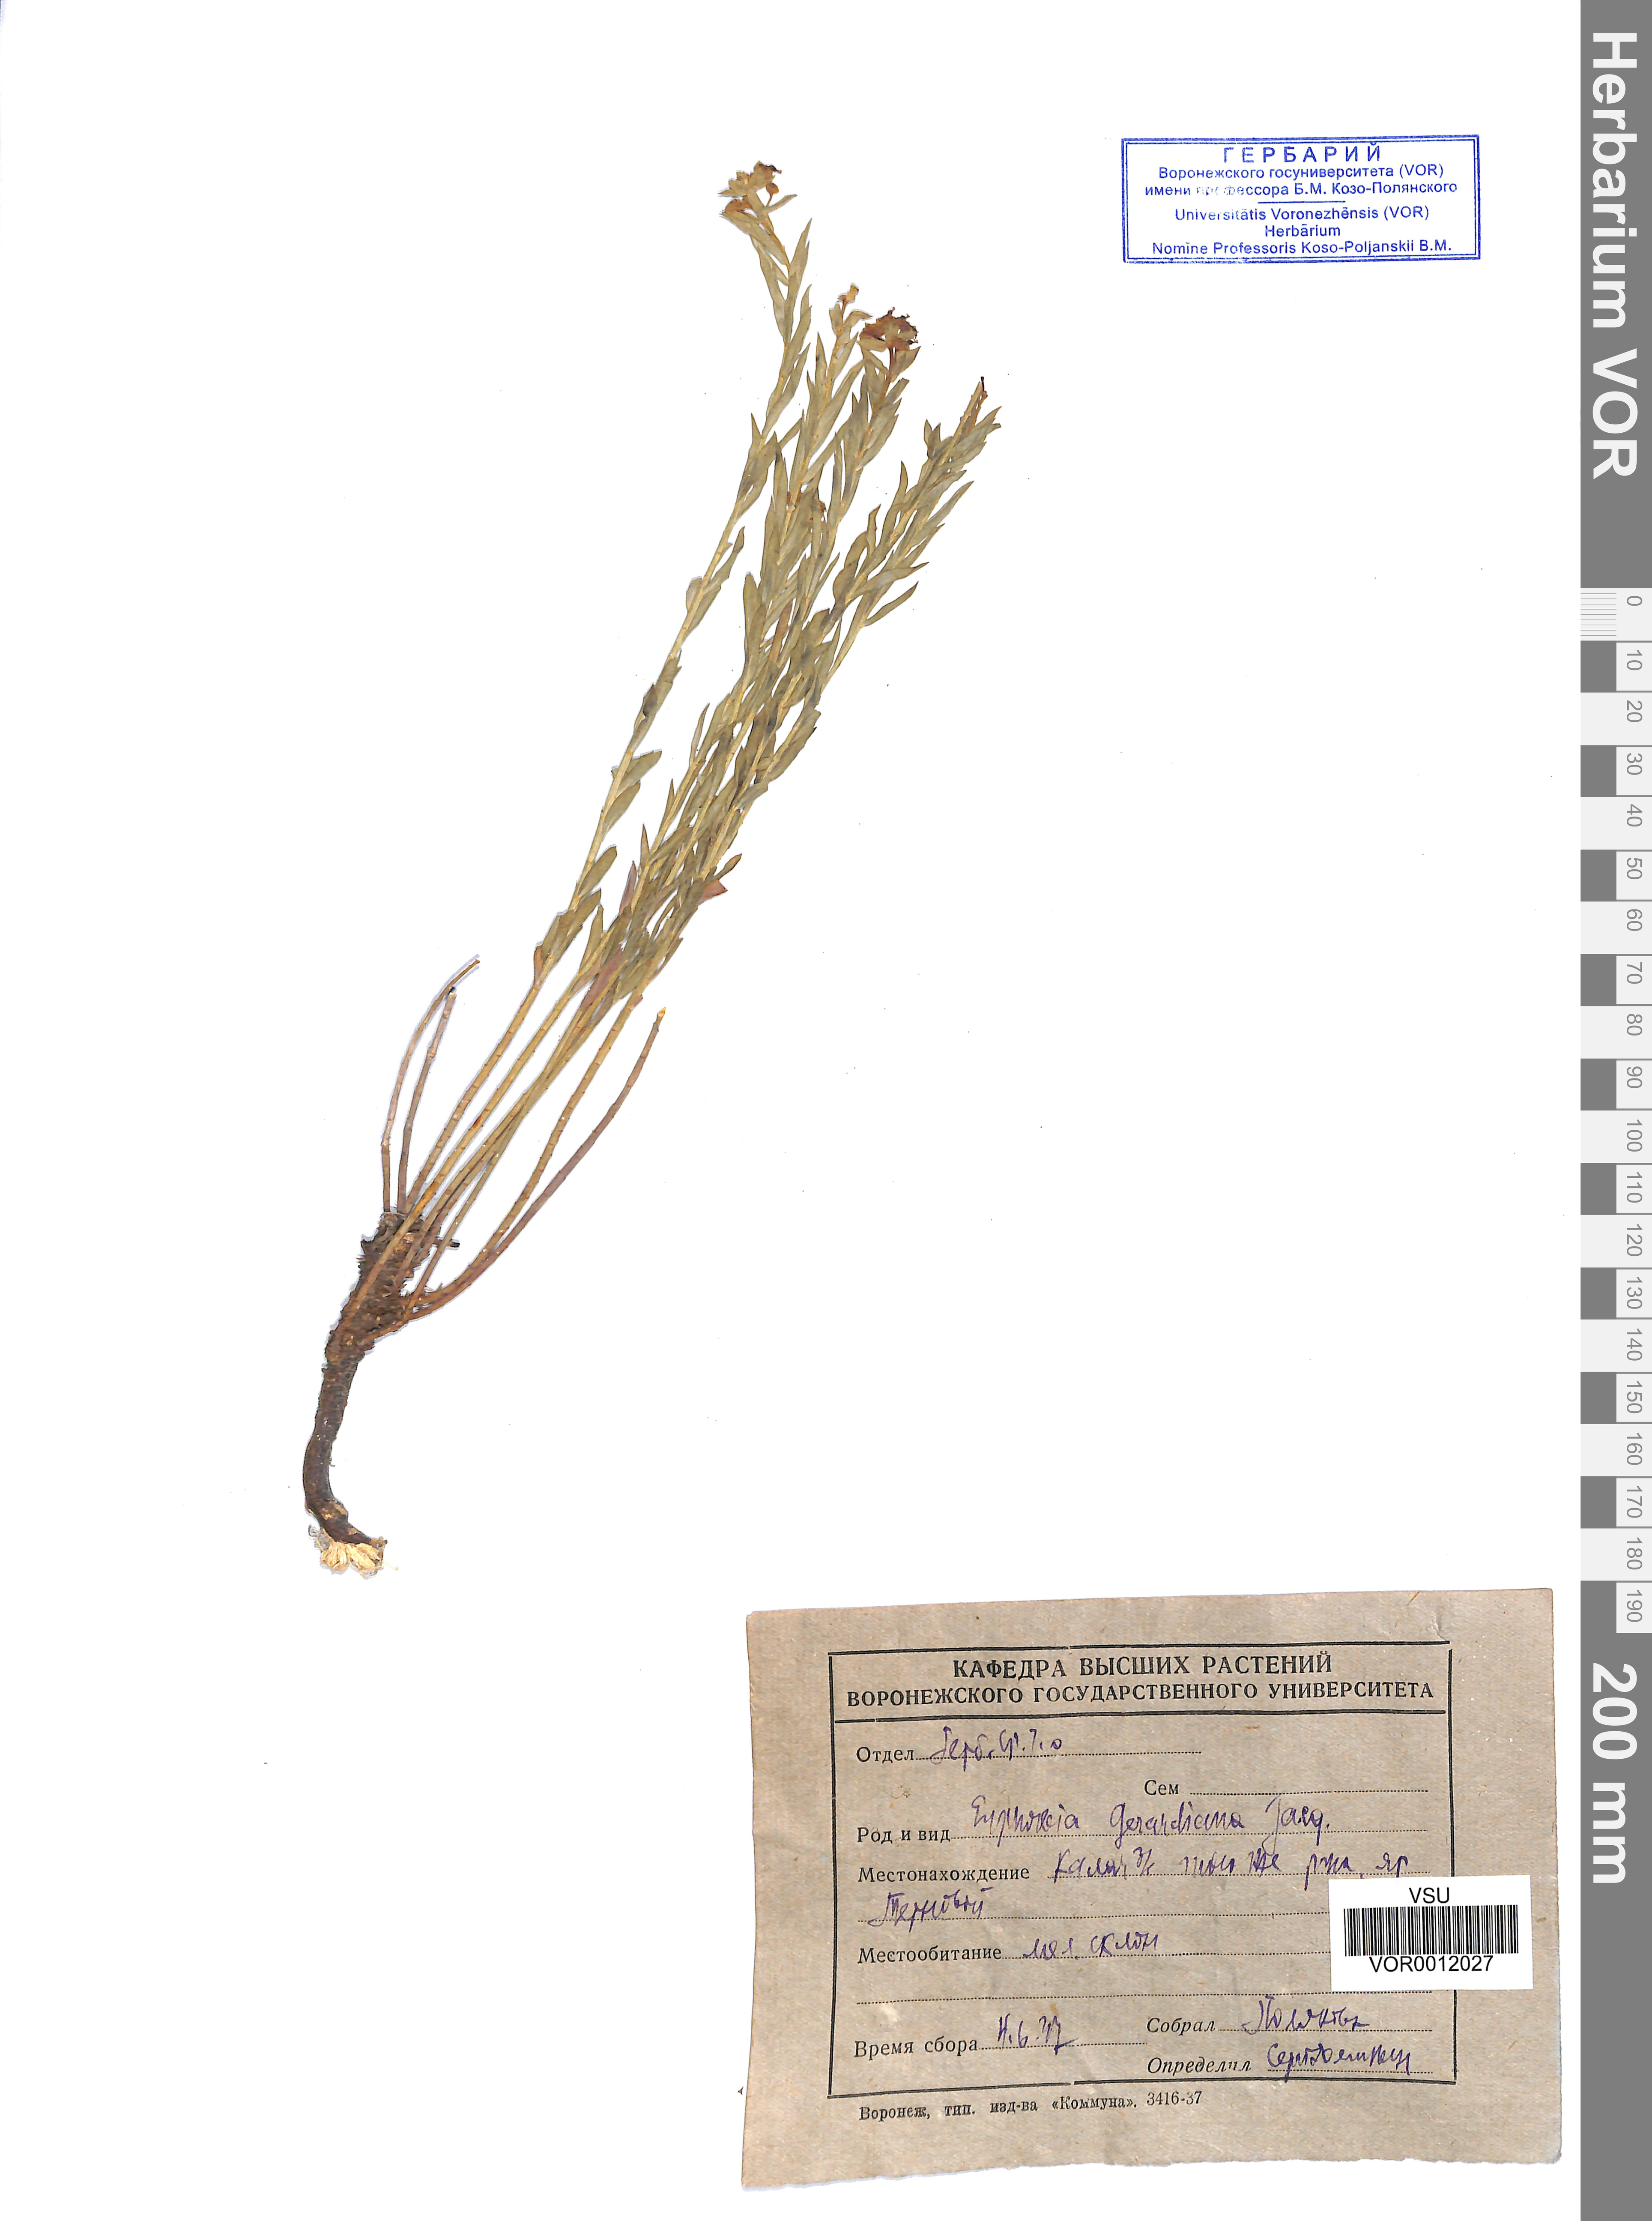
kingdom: Plantae
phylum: Tracheophyta
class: Magnoliopsida
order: Malpighiales
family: Euphorbiaceae
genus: Euphorbia
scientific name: Euphorbia seguieriana
